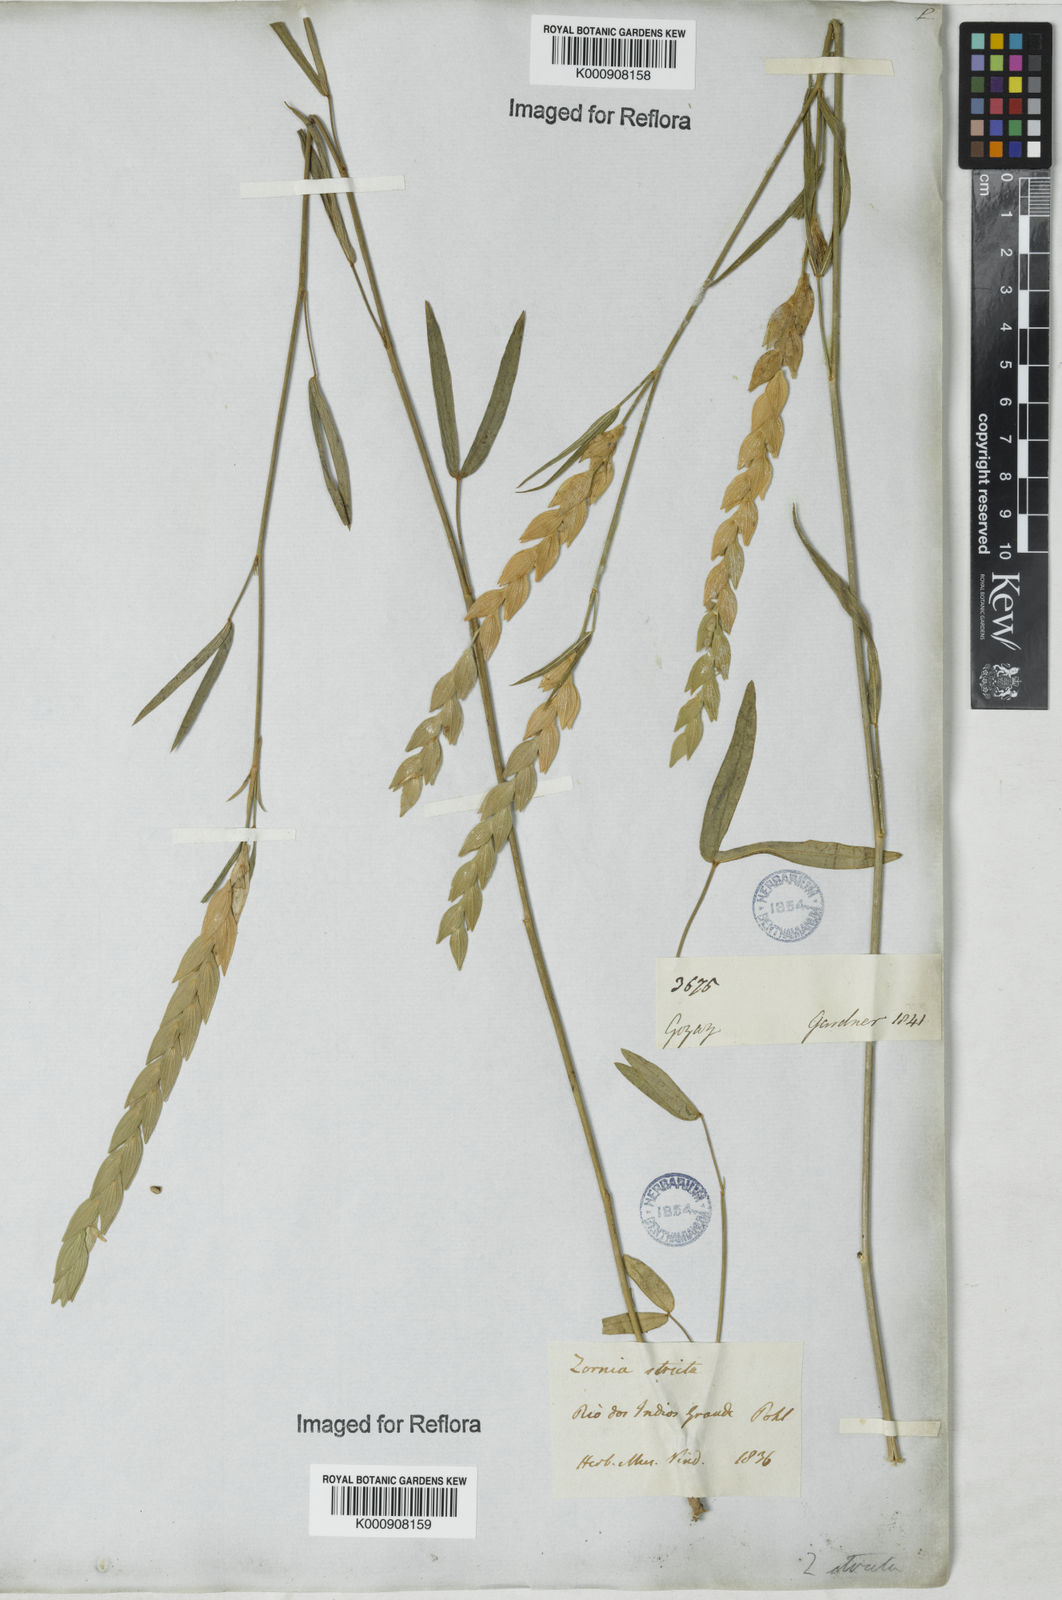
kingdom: Plantae
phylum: Tracheophyta
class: Magnoliopsida
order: Fabales
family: Fabaceae
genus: Zornia
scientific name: Zornia reticulata
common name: Reticulate viperina
